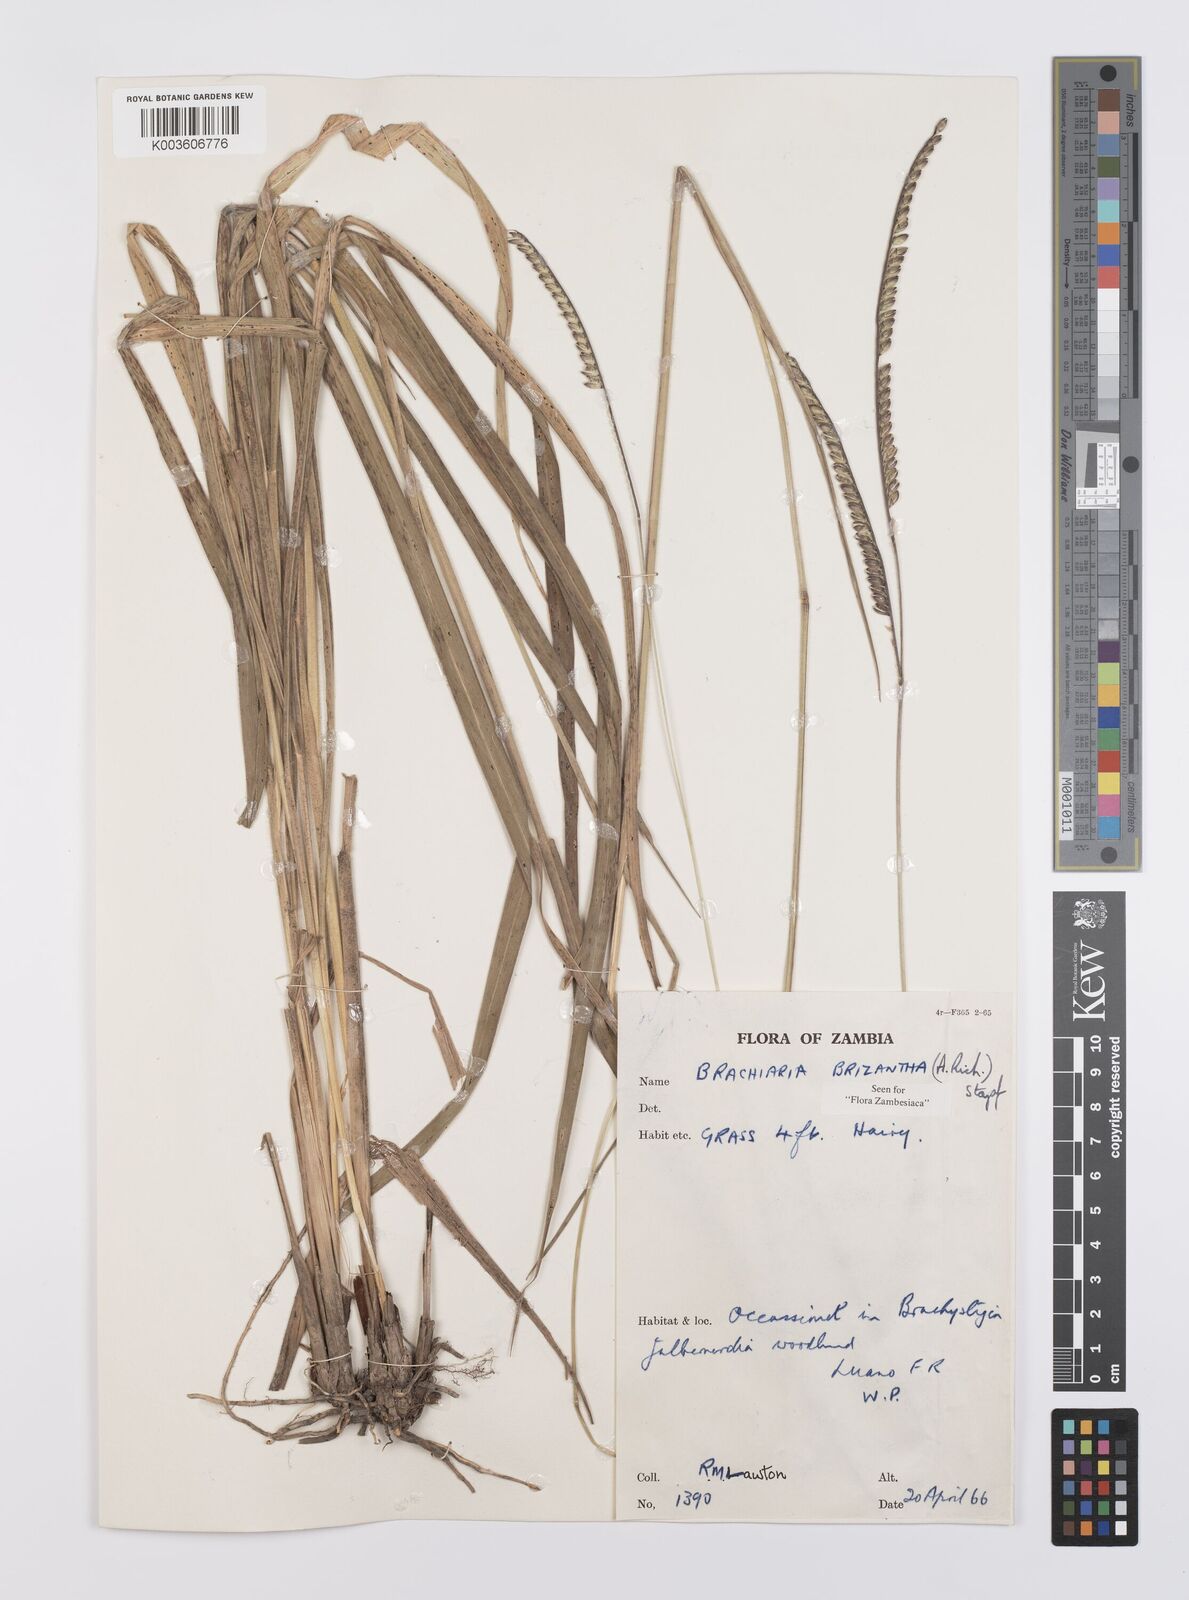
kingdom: Plantae
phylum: Tracheophyta
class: Liliopsida
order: Poales
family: Poaceae
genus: Urochloa
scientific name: Urochloa brizantha
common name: Palisade signalgrass
